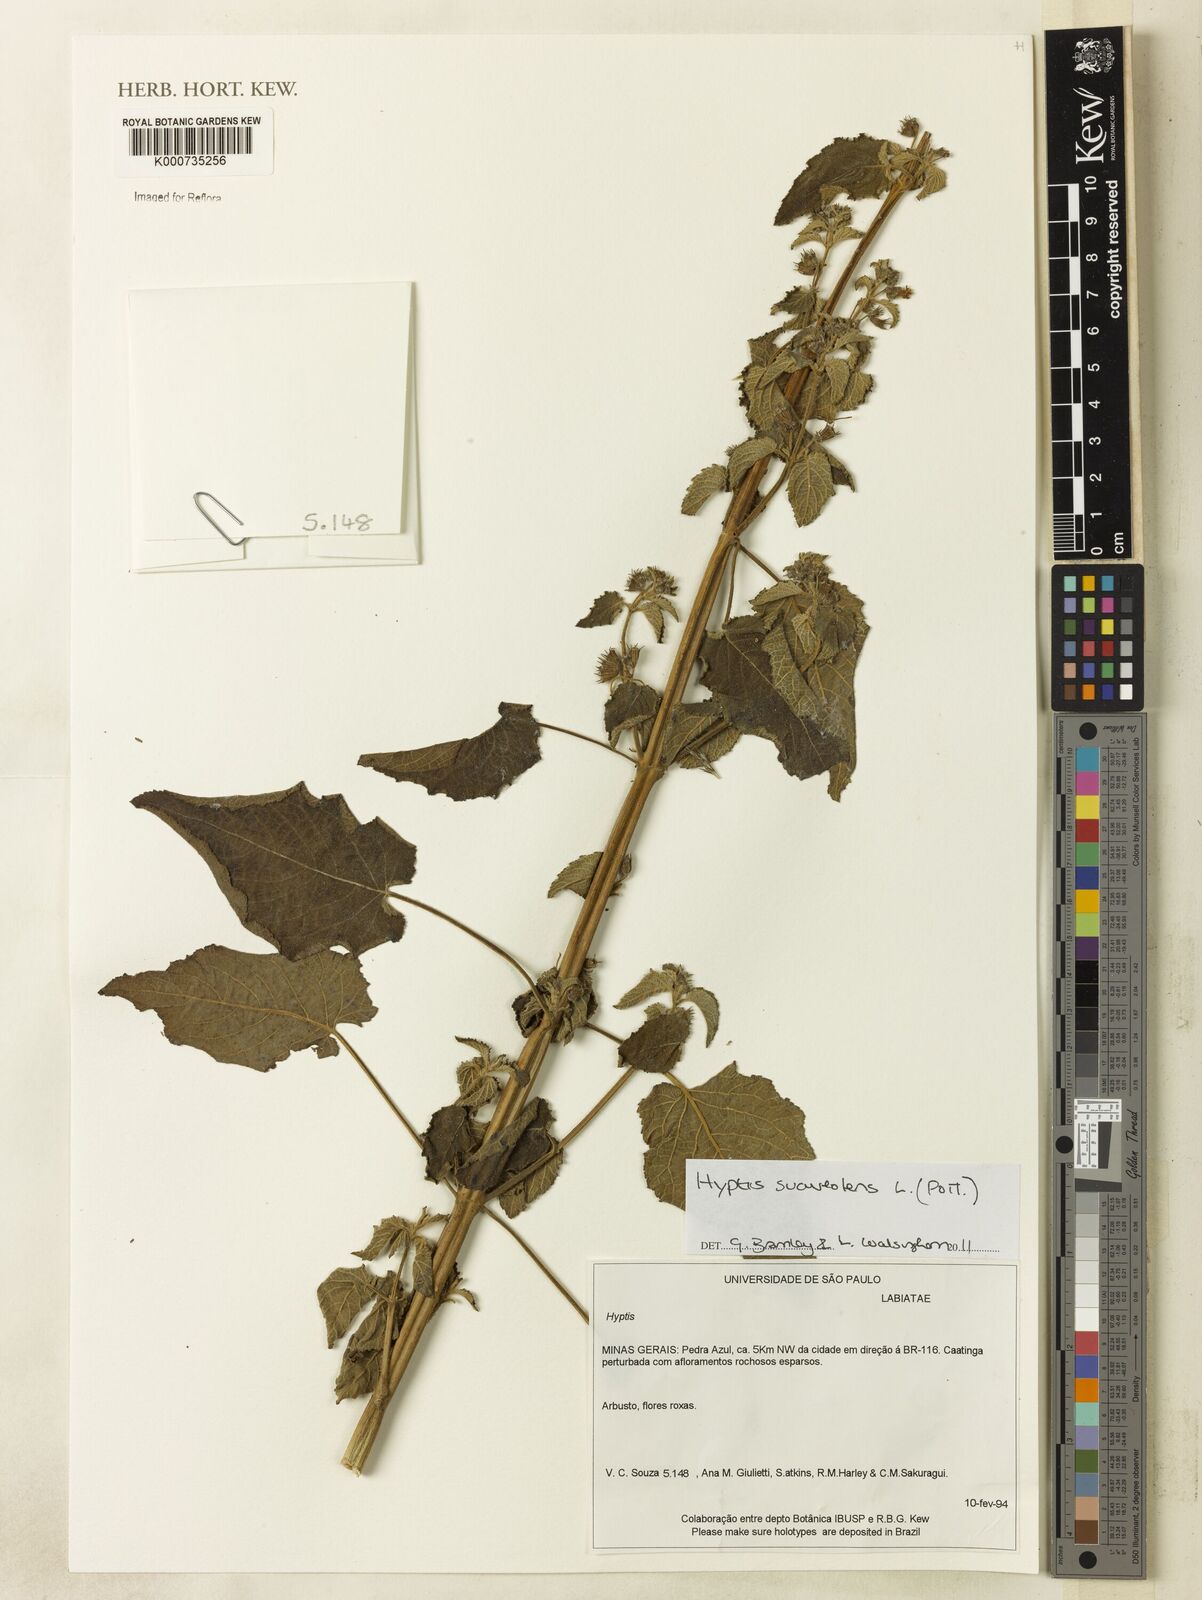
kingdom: Plantae
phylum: Tracheophyta
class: Magnoliopsida
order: Lamiales
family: Lamiaceae
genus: Mesosphaerum
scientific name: Mesosphaerum suaveolens
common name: Pignut
